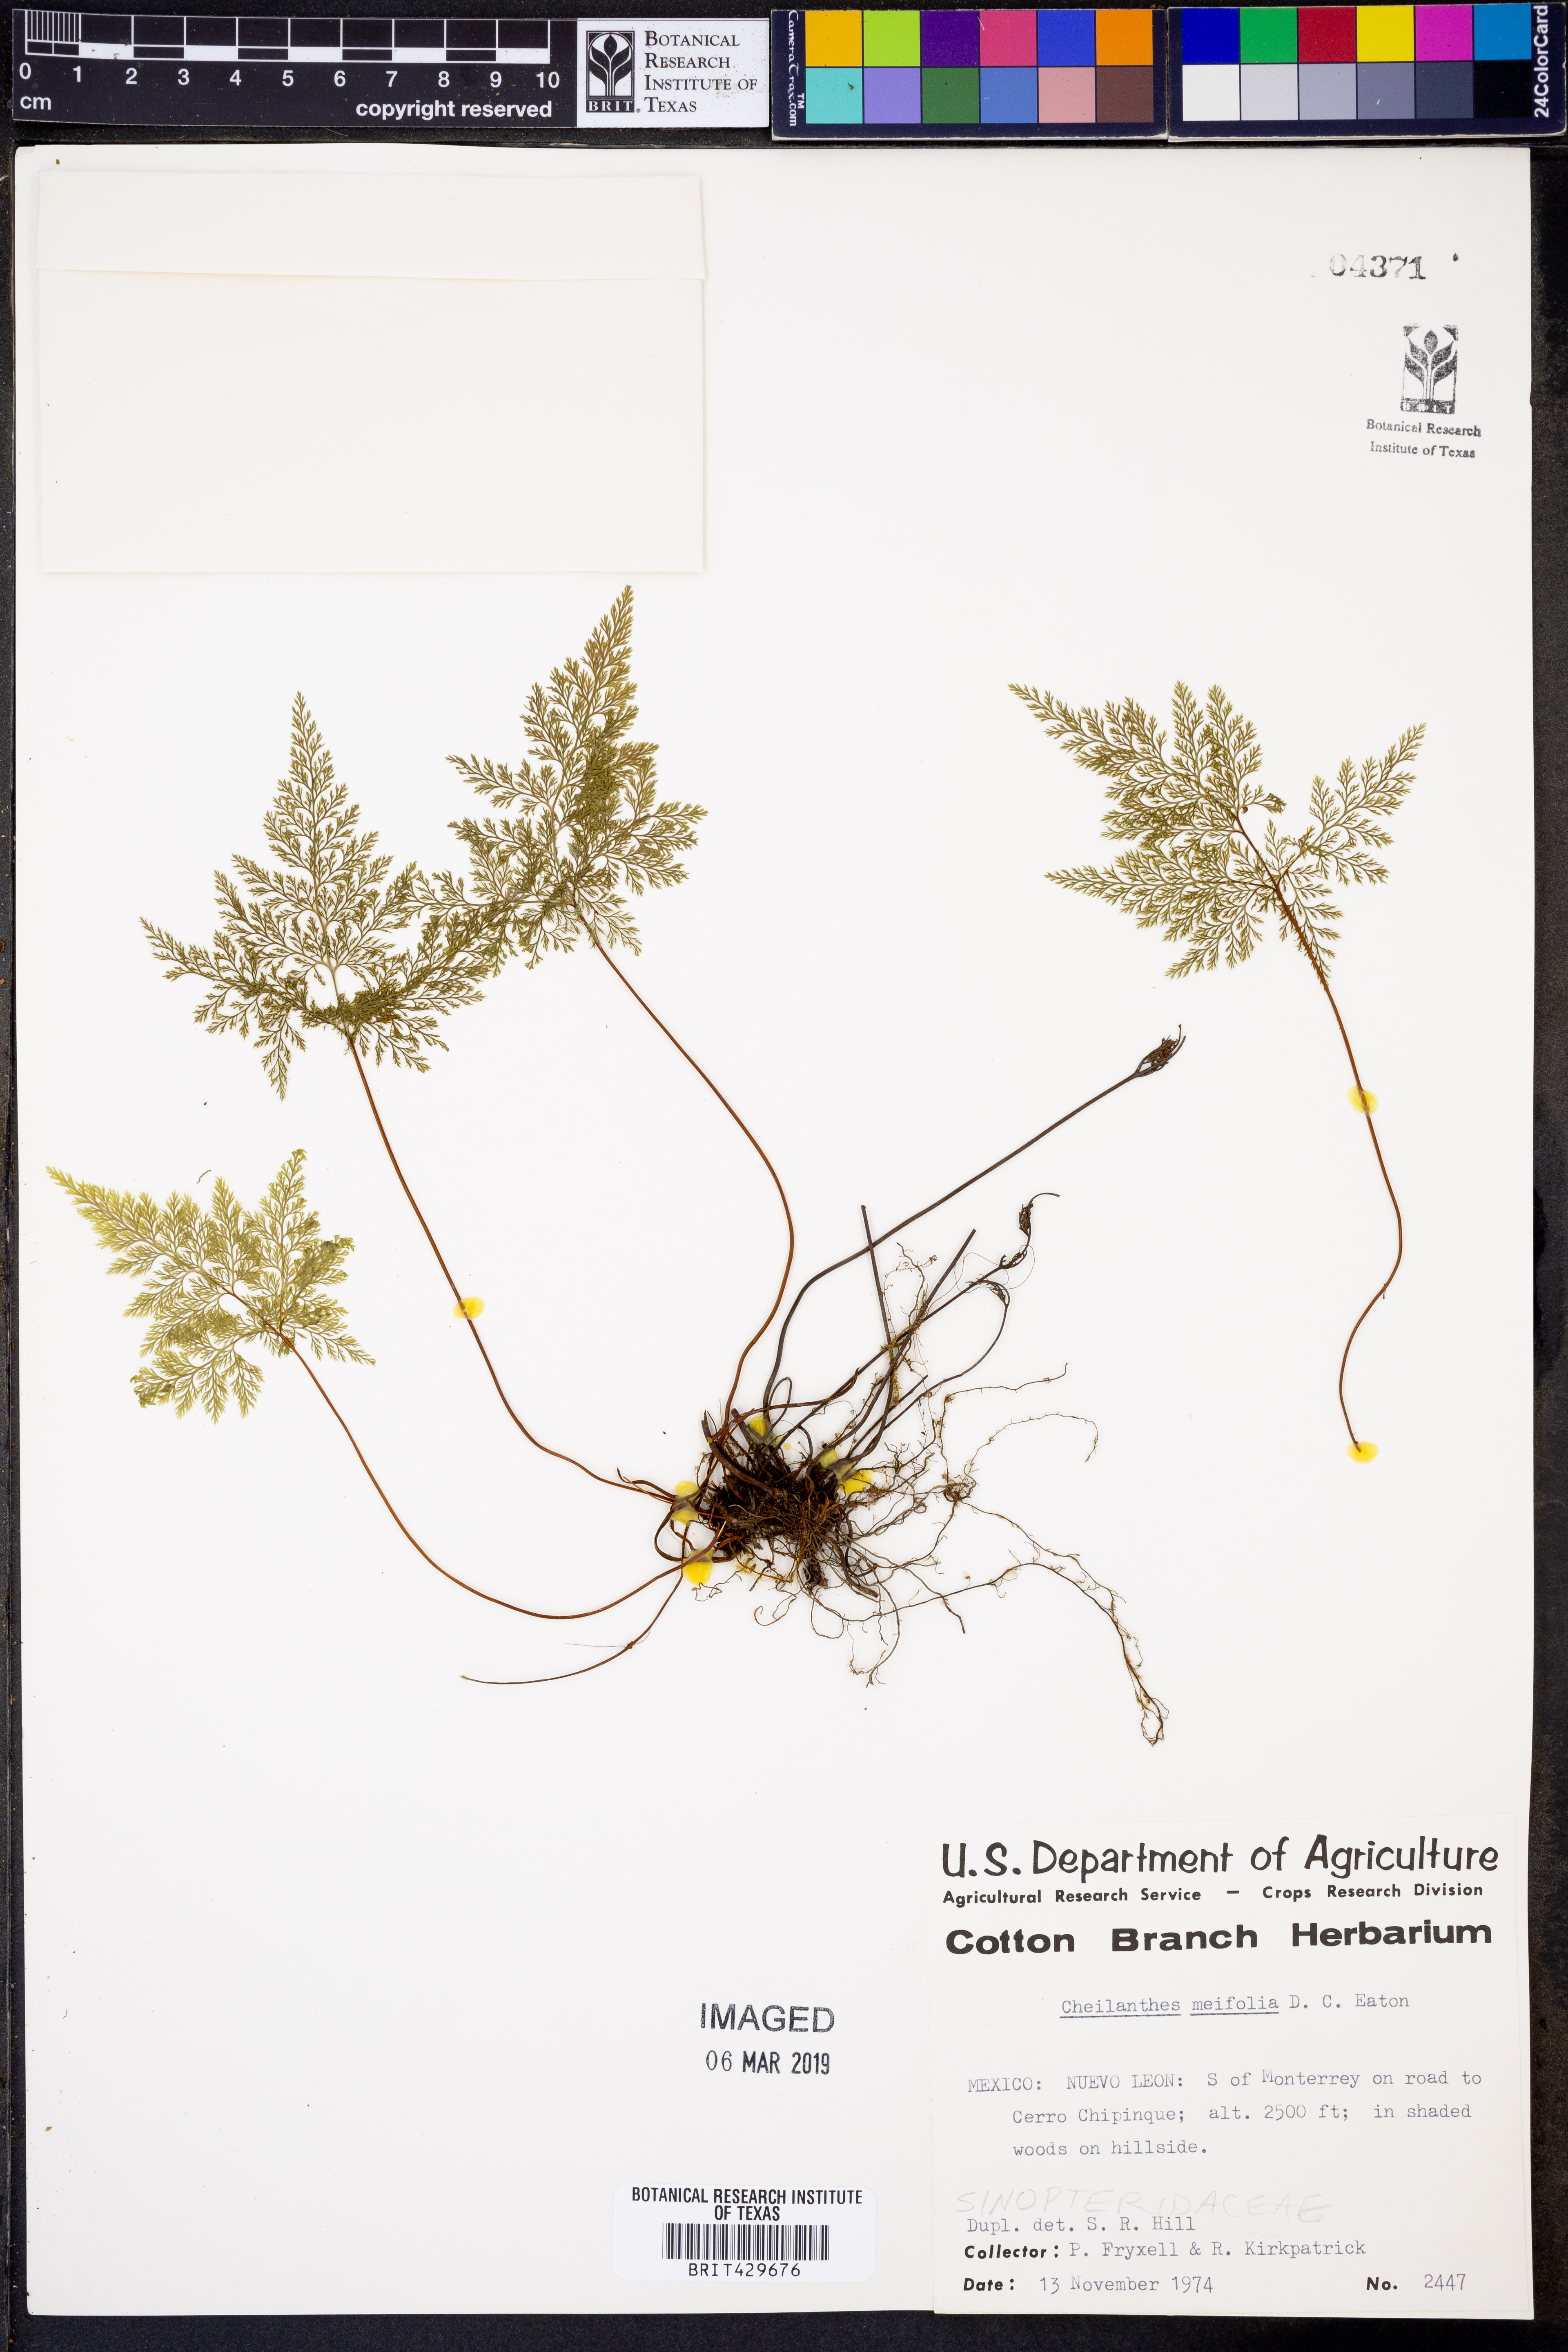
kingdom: Plantae
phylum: Tracheophyta
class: Polypodiopsida
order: Polypodiales
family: Pteridaceae
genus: Aspidotis
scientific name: Aspidotis meifolia
